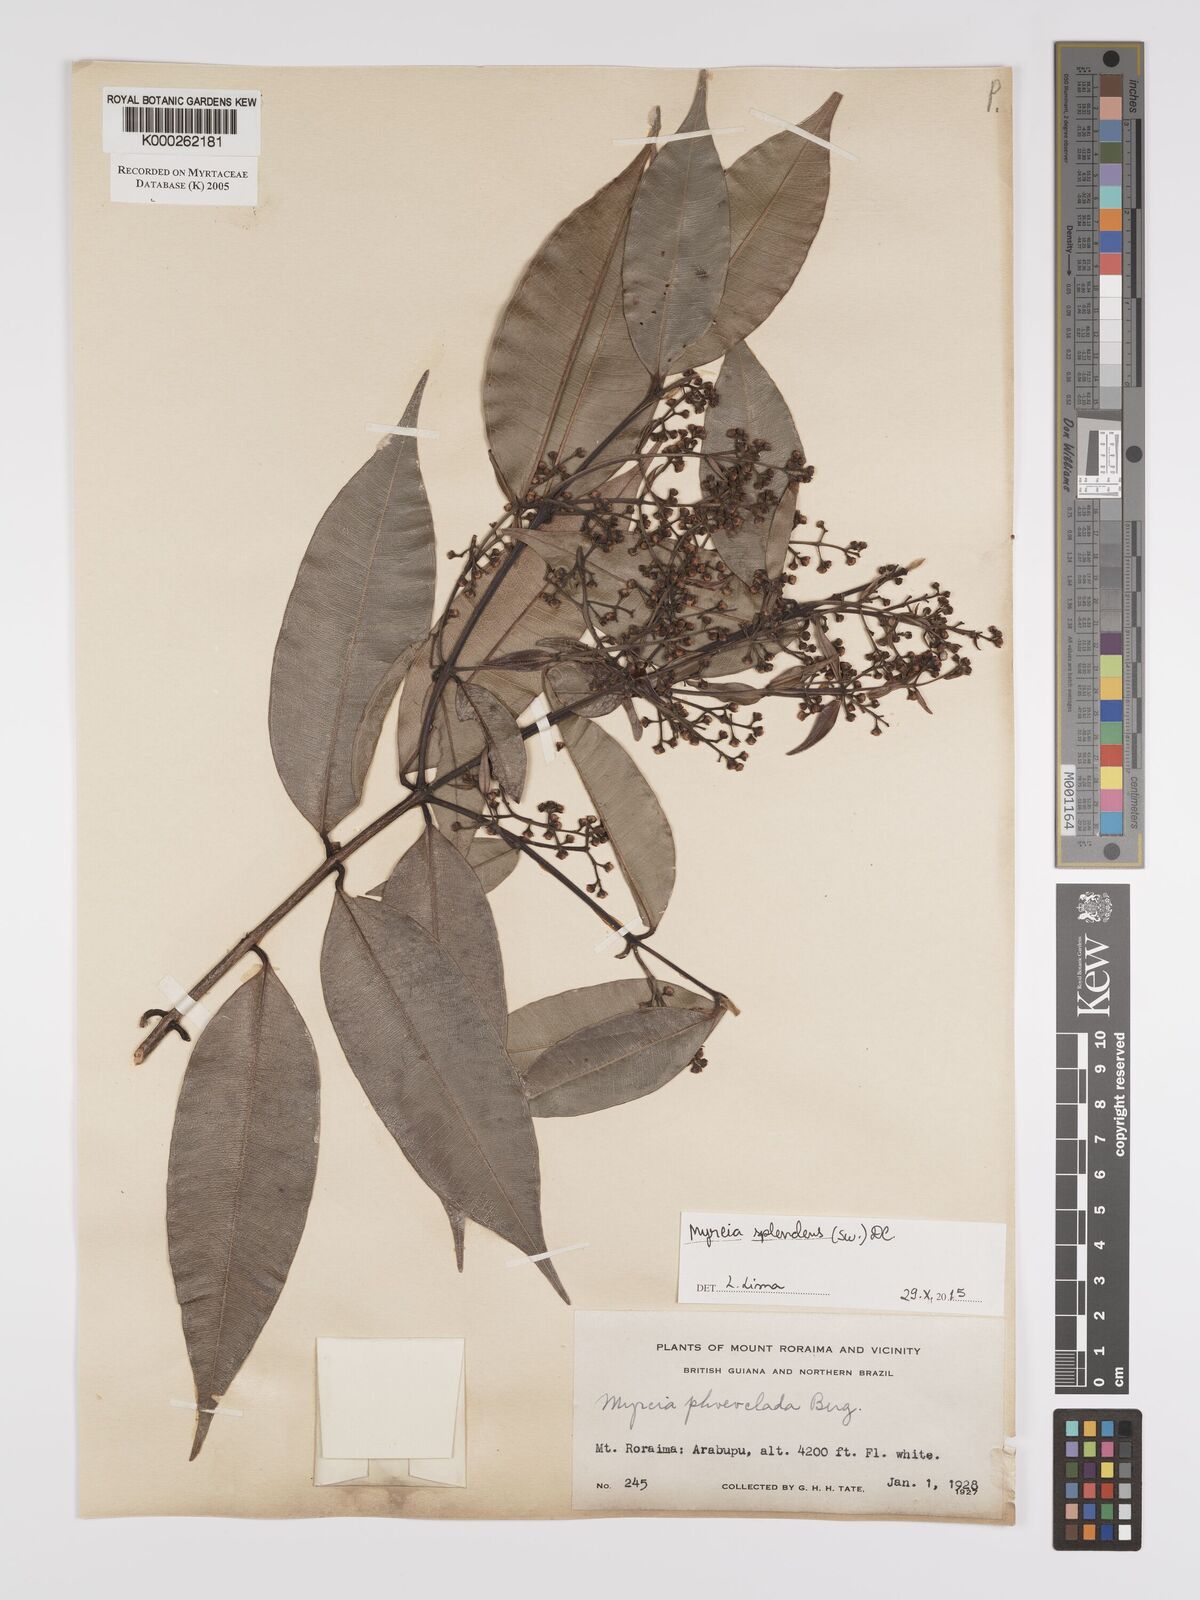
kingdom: Plantae
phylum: Tracheophyta
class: Magnoliopsida
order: Myrtales
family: Myrtaceae
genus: Myrcia
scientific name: Myrcia splendens
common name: Surinam cherry
